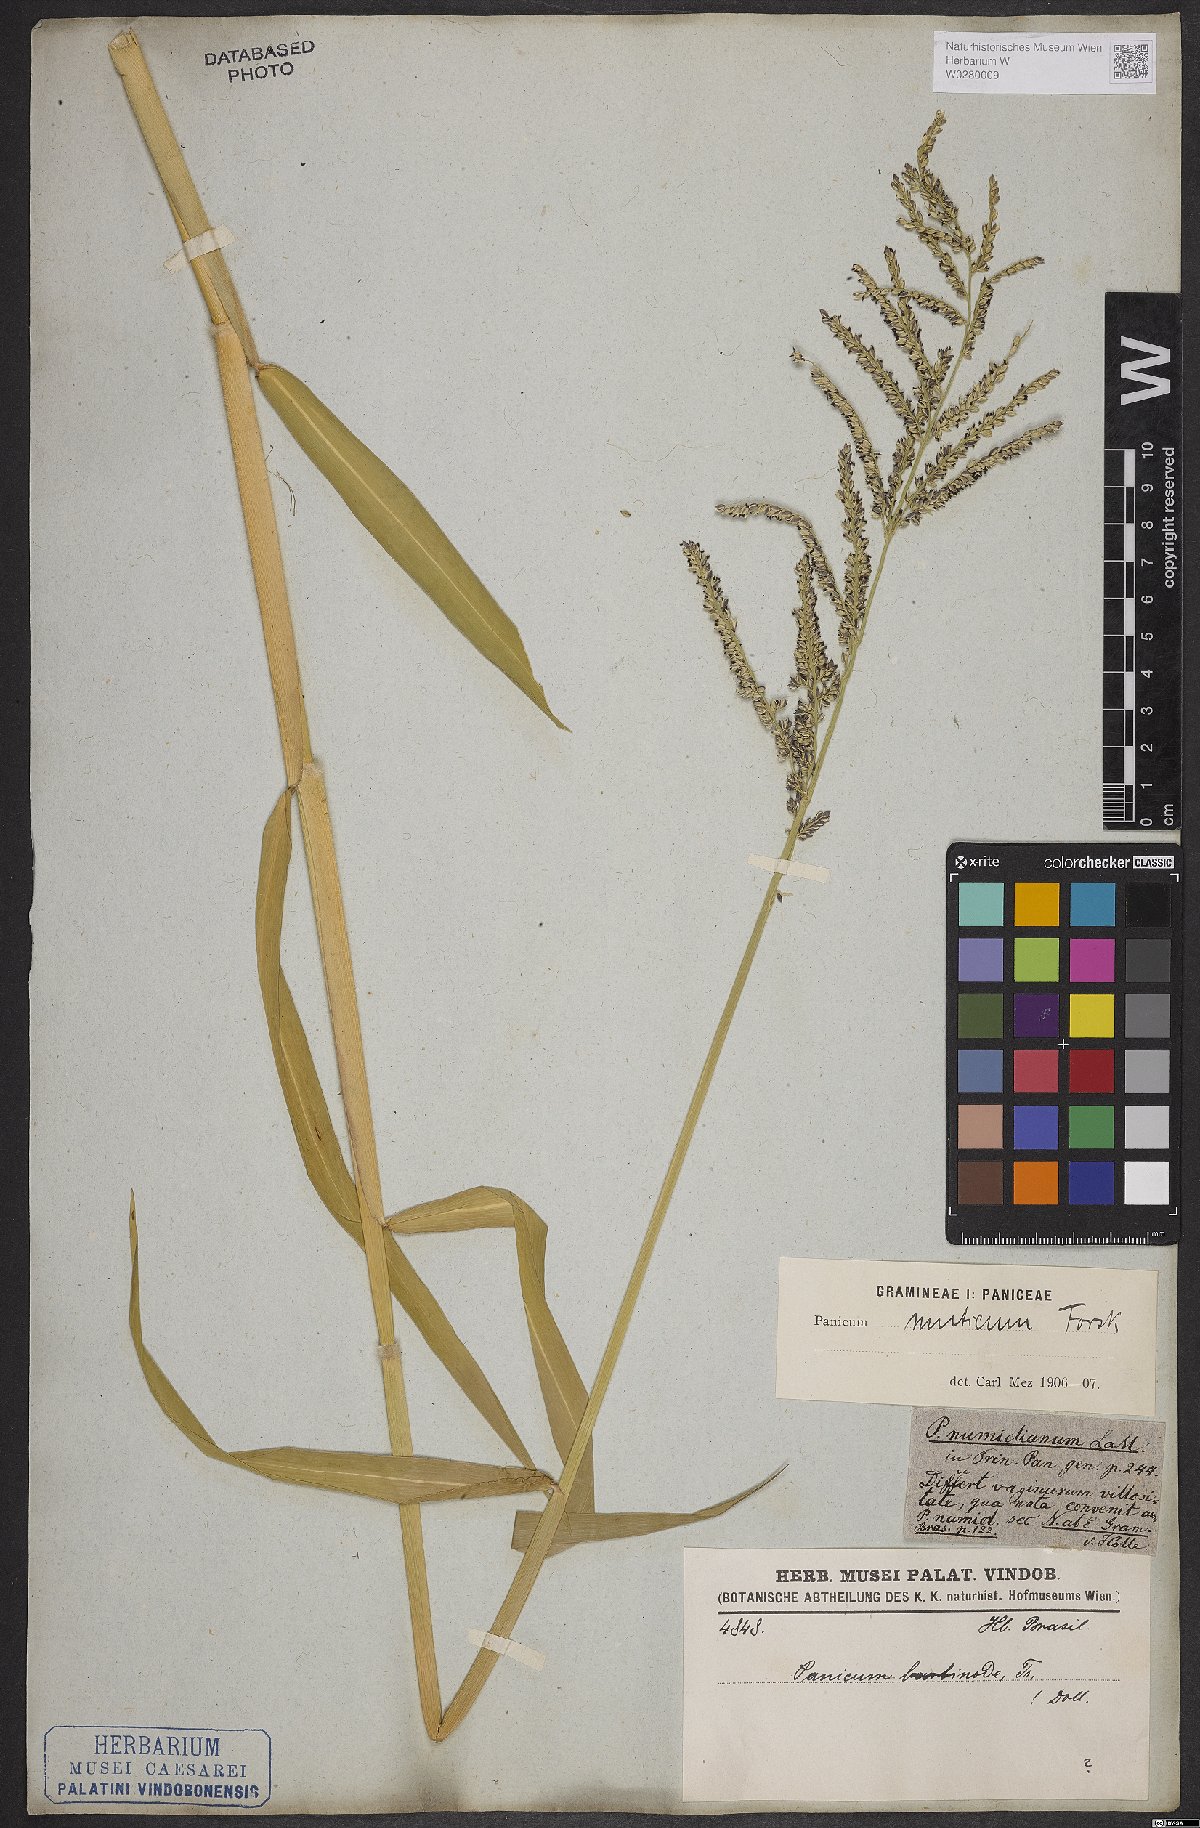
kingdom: Plantae
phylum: Tracheophyta
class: Liliopsida
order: Poales
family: Poaceae
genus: Urochloa
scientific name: Urochloa mutica
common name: Para grass
